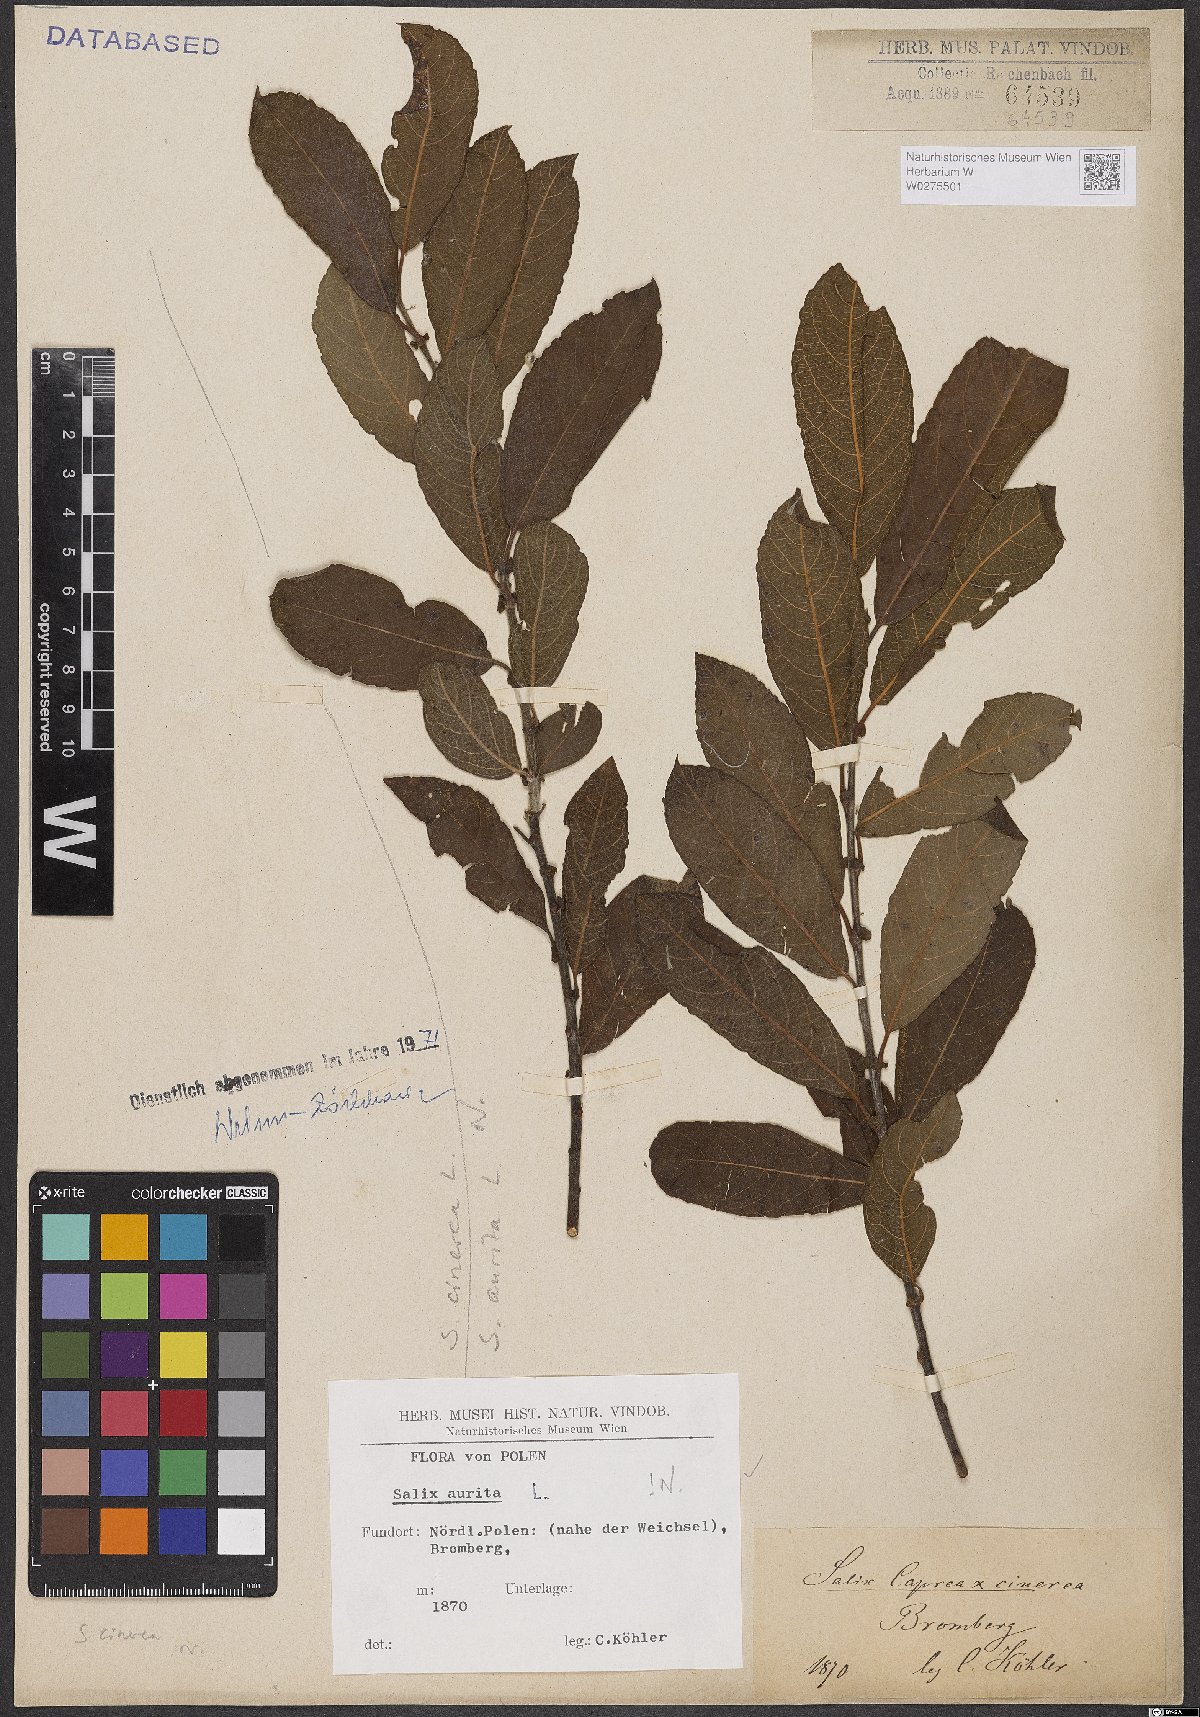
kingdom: Plantae
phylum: Tracheophyta
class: Magnoliopsida
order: Malpighiales
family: Salicaceae
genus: Salix
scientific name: Salix aurita
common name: Eared willow
